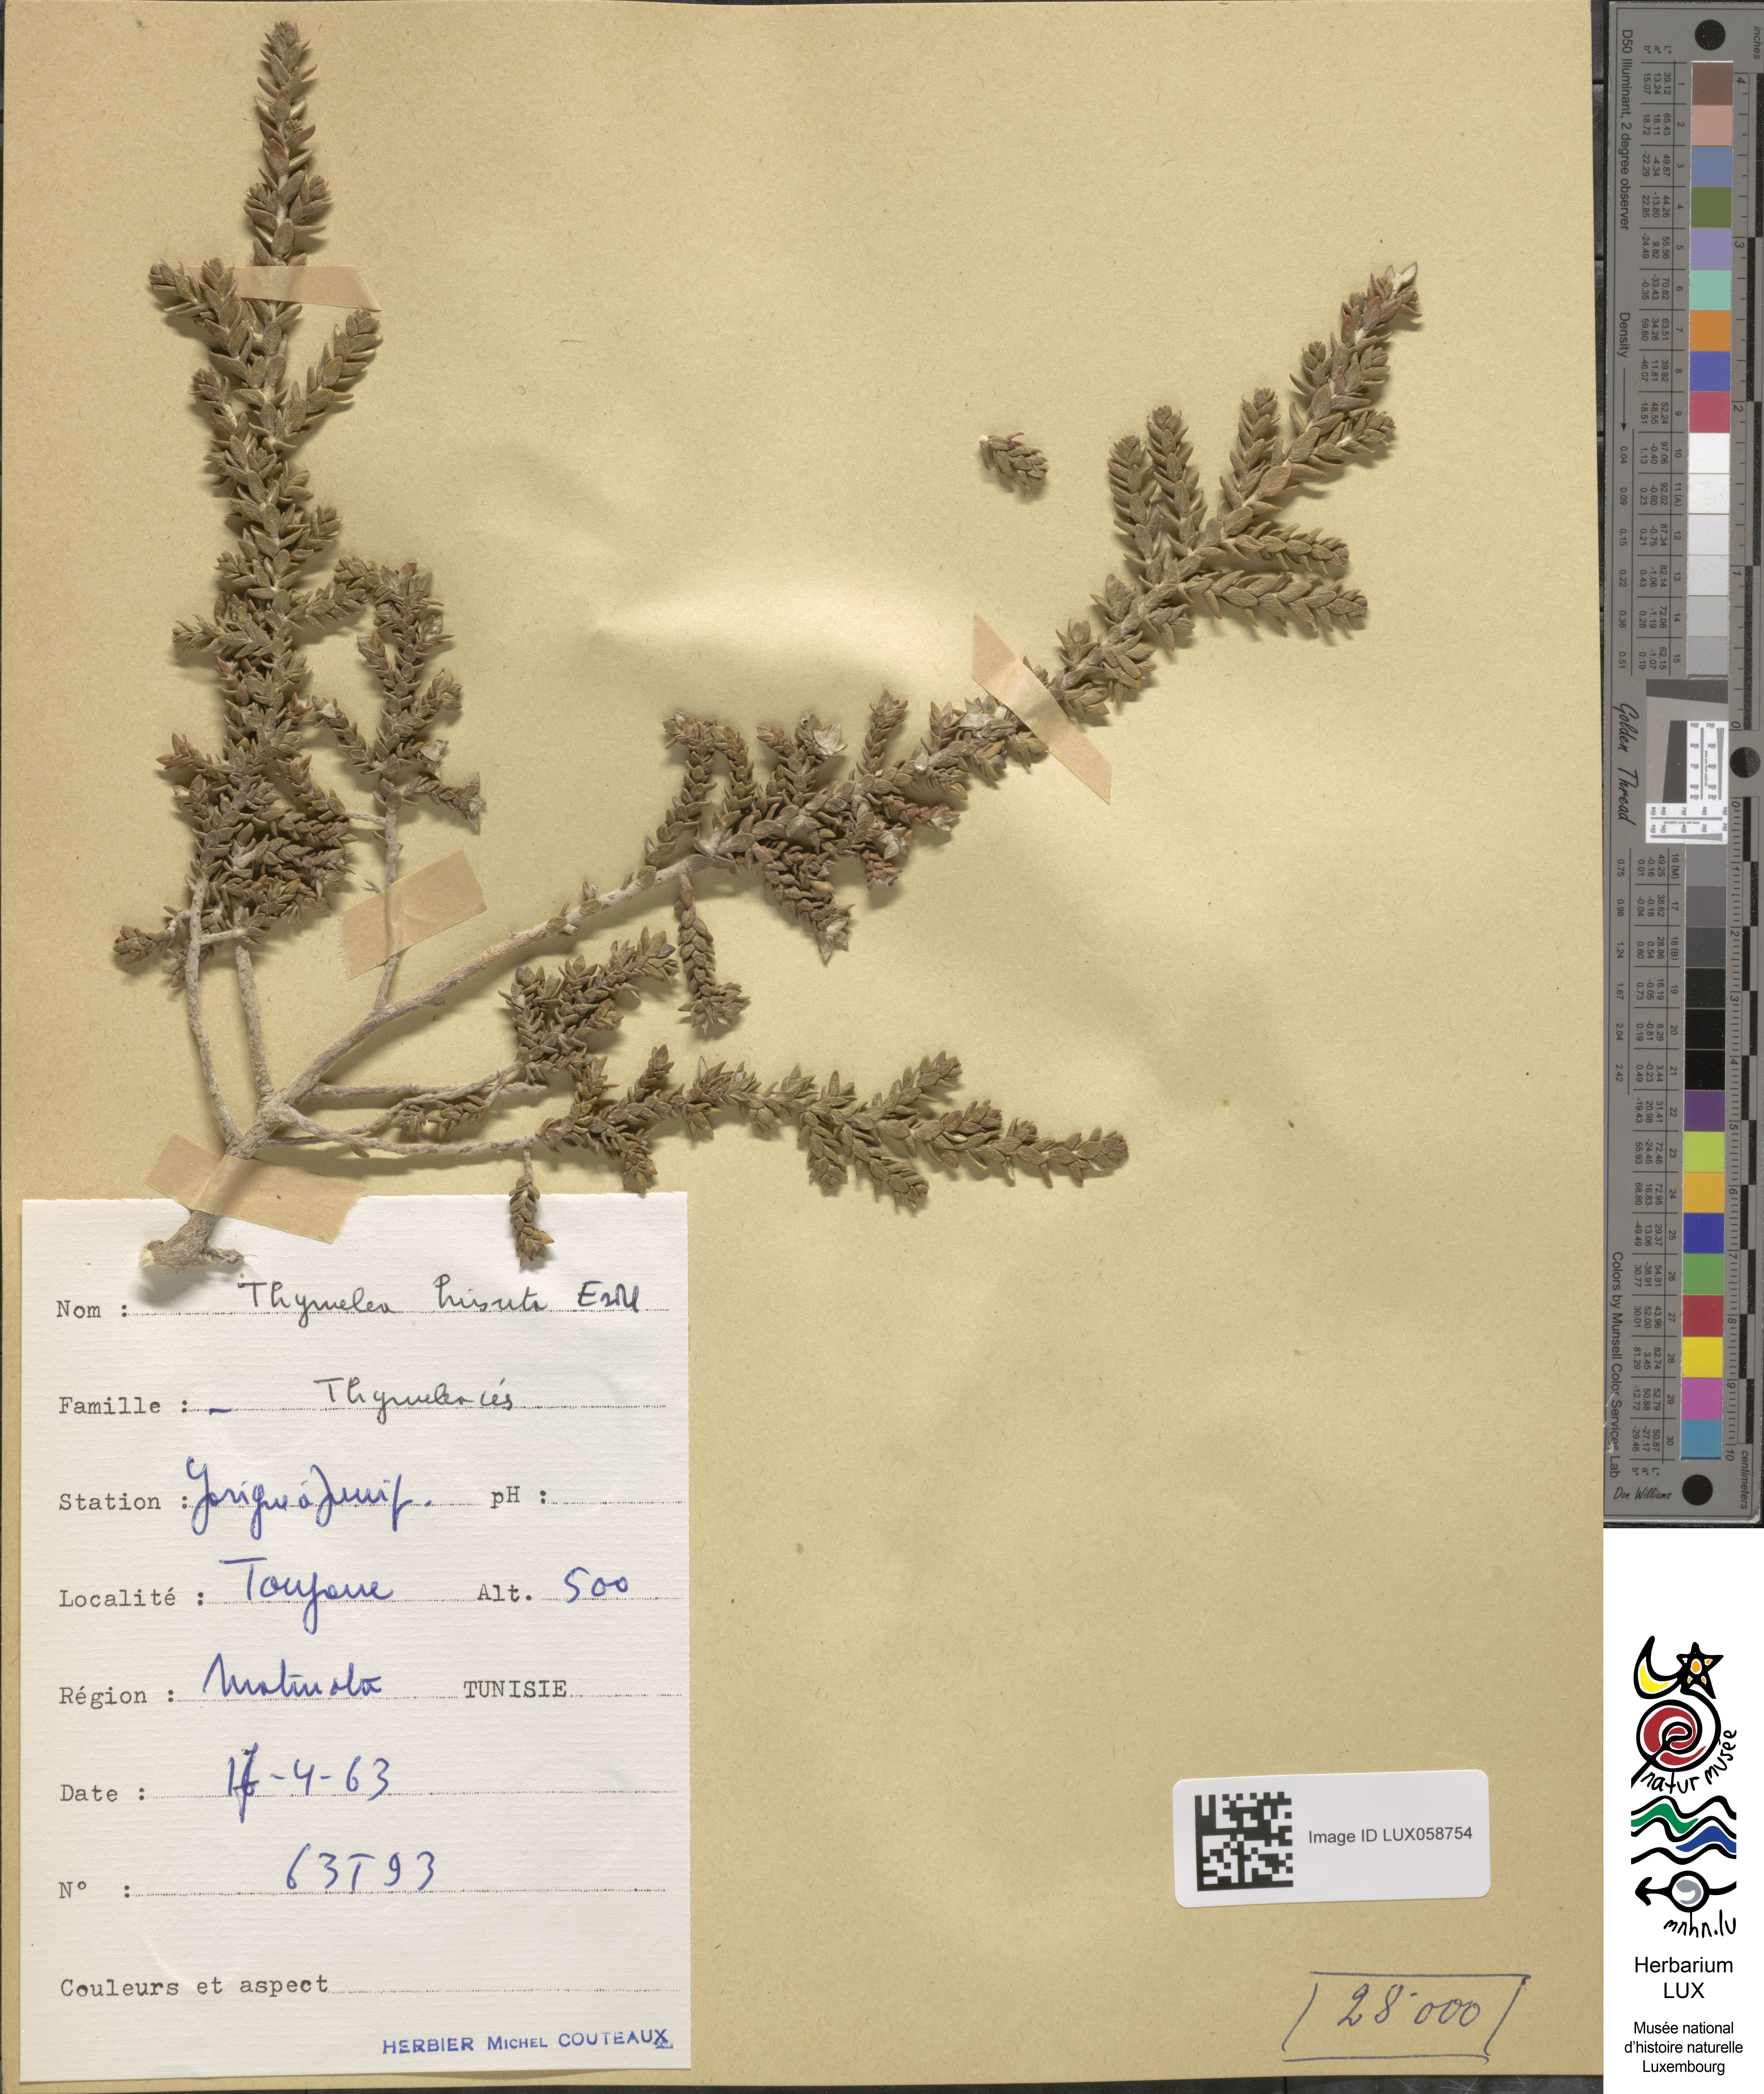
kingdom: Plantae
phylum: Tracheophyta
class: Magnoliopsida
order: Malvales
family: Thymelaeaceae
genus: Thymelaea
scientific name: Thymelaea hirsuta
